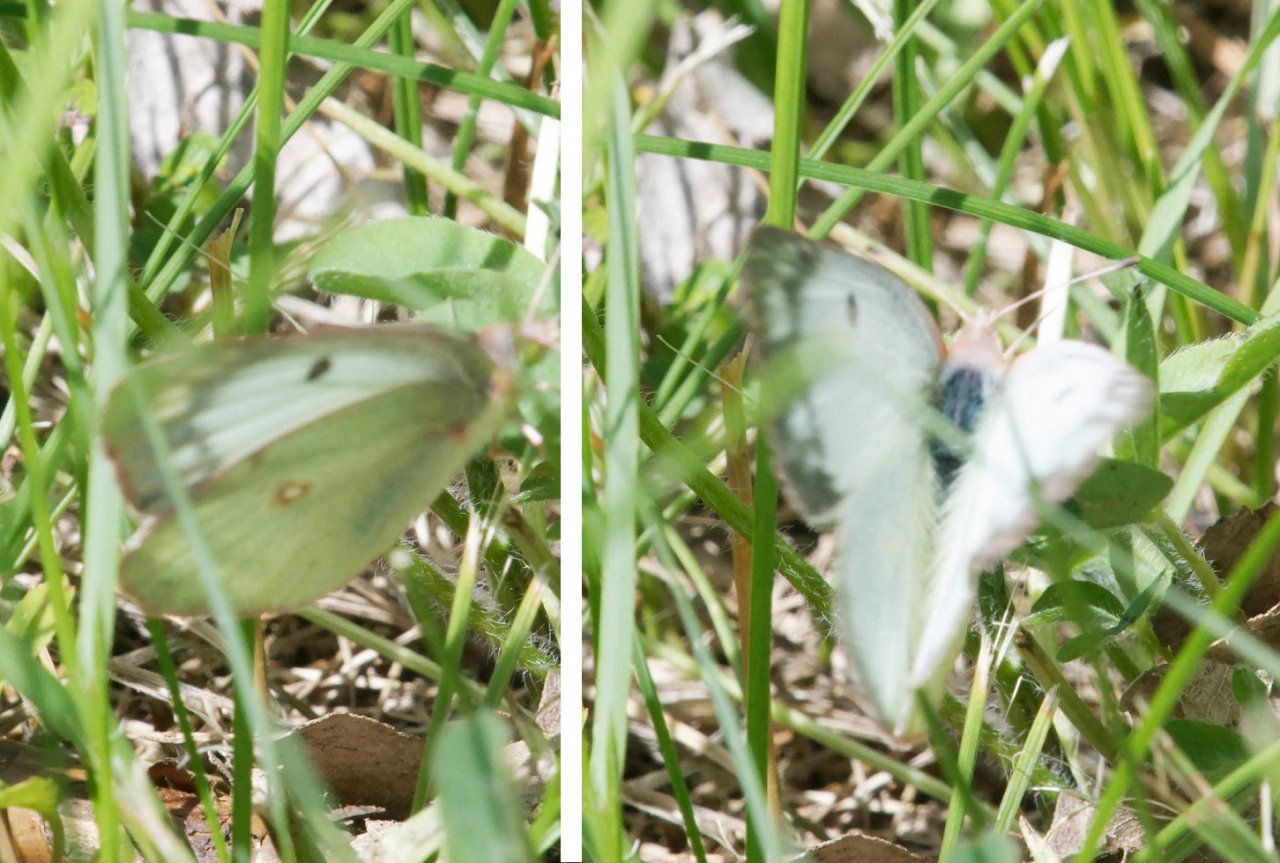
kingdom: Animalia
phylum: Arthropoda
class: Insecta
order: Lepidoptera
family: Pieridae
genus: Colias
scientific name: Colias philodice
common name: Clouded Sulphur
